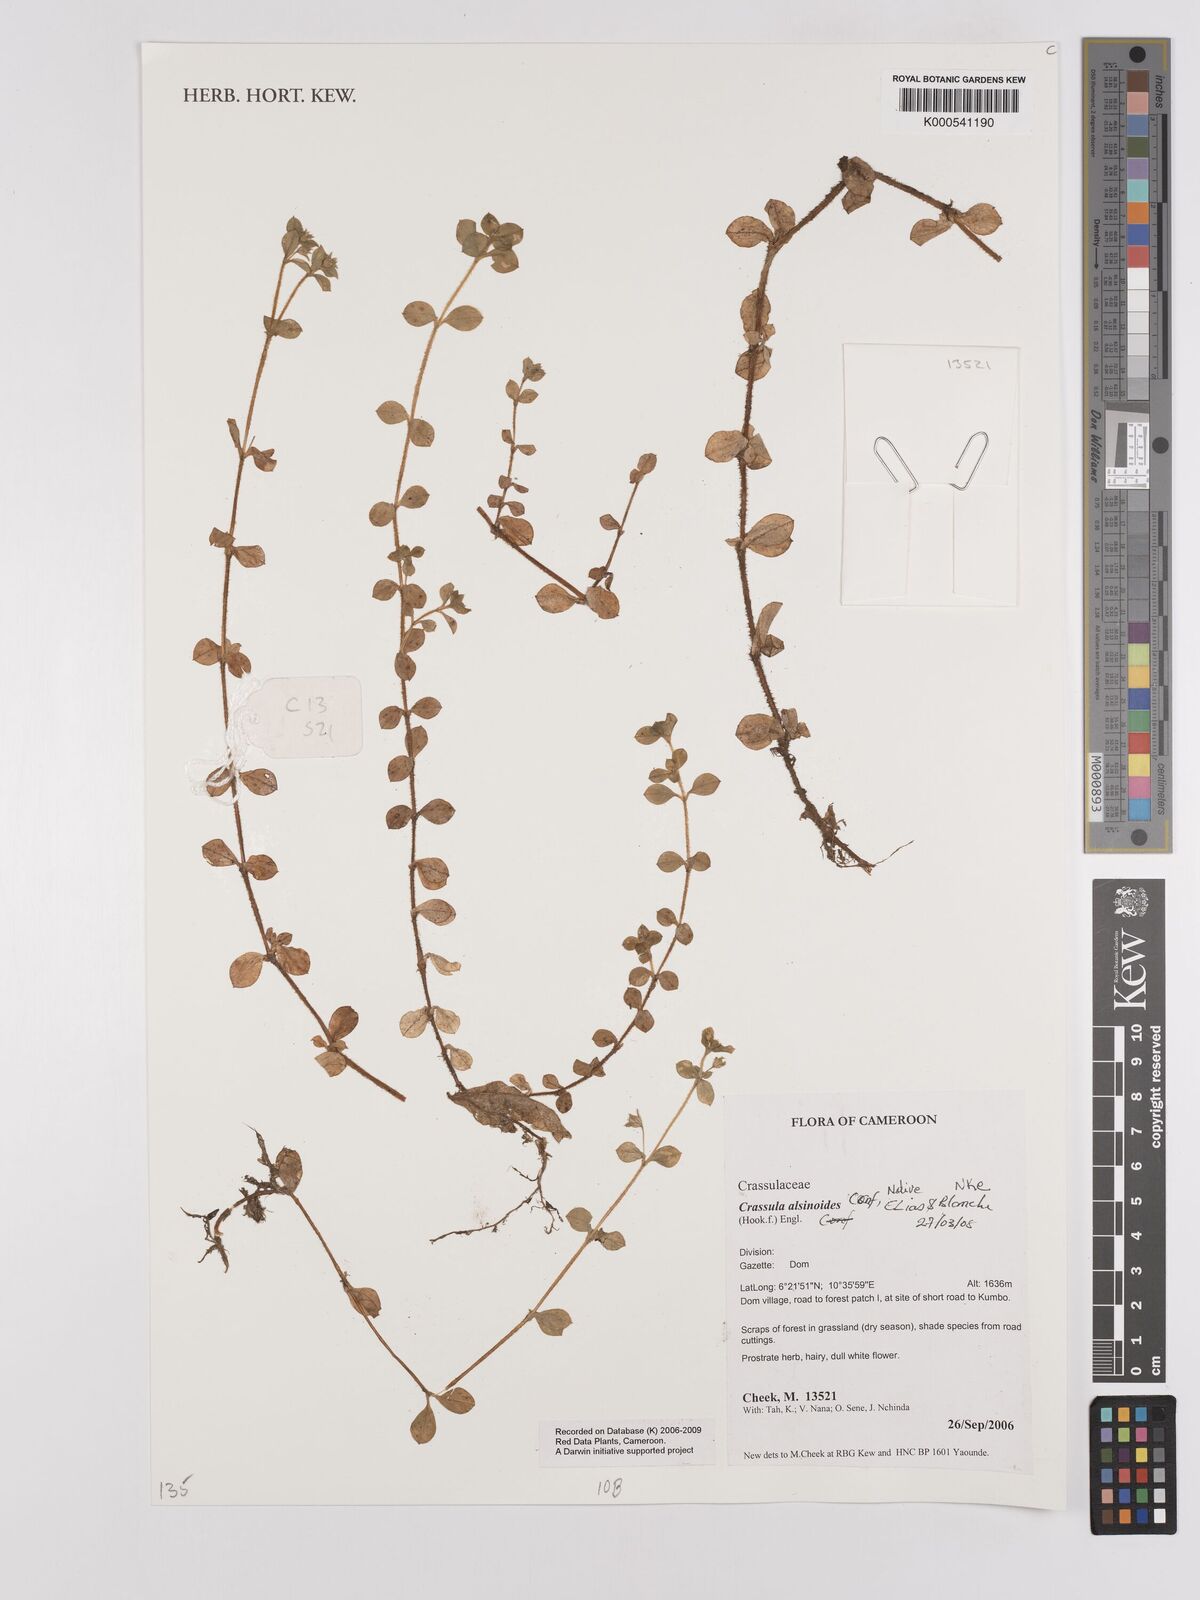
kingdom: Plantae
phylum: Tracheophyta
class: Magnoliopsida
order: Saxifragales
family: Crassulaceae
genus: Crassula
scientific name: Crassula alsinoides
